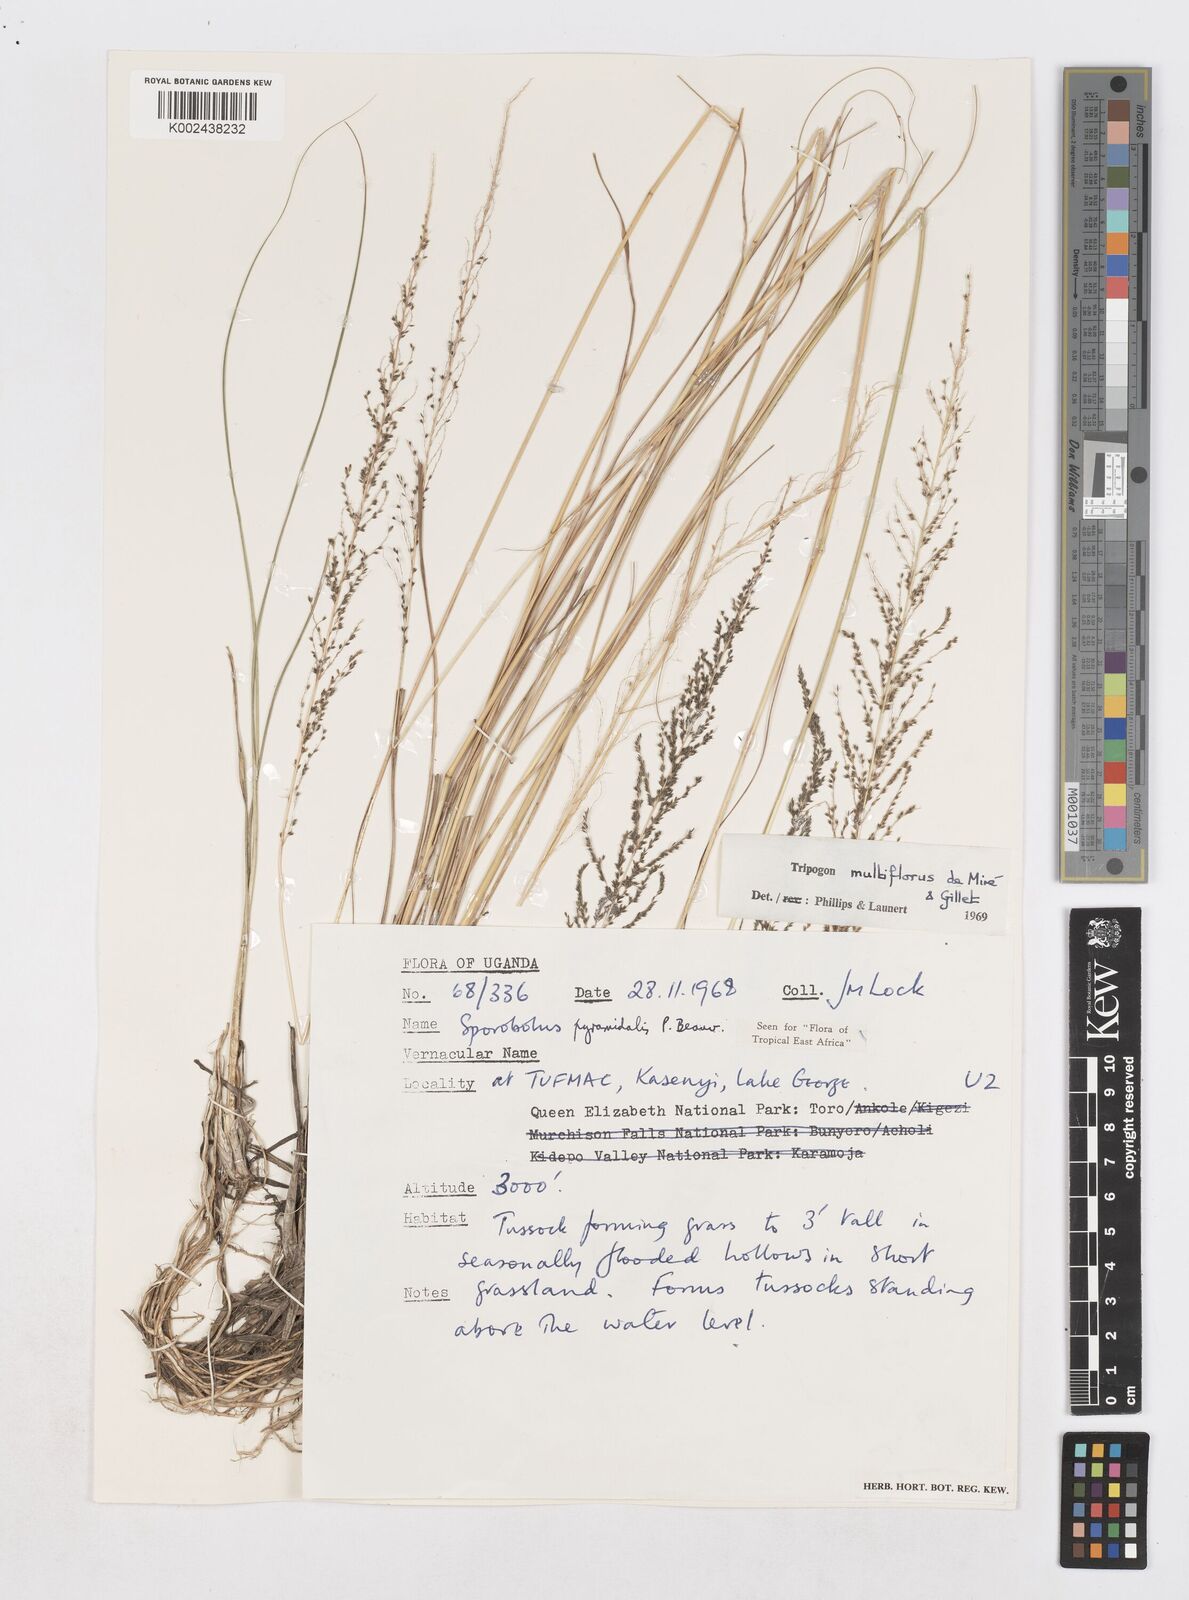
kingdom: Plantae
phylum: Tracheophyta
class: Liliopsida
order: Poales
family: Poaceae
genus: Sporobolus
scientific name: Sporobolus pyramidalis
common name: West indian dropseed
